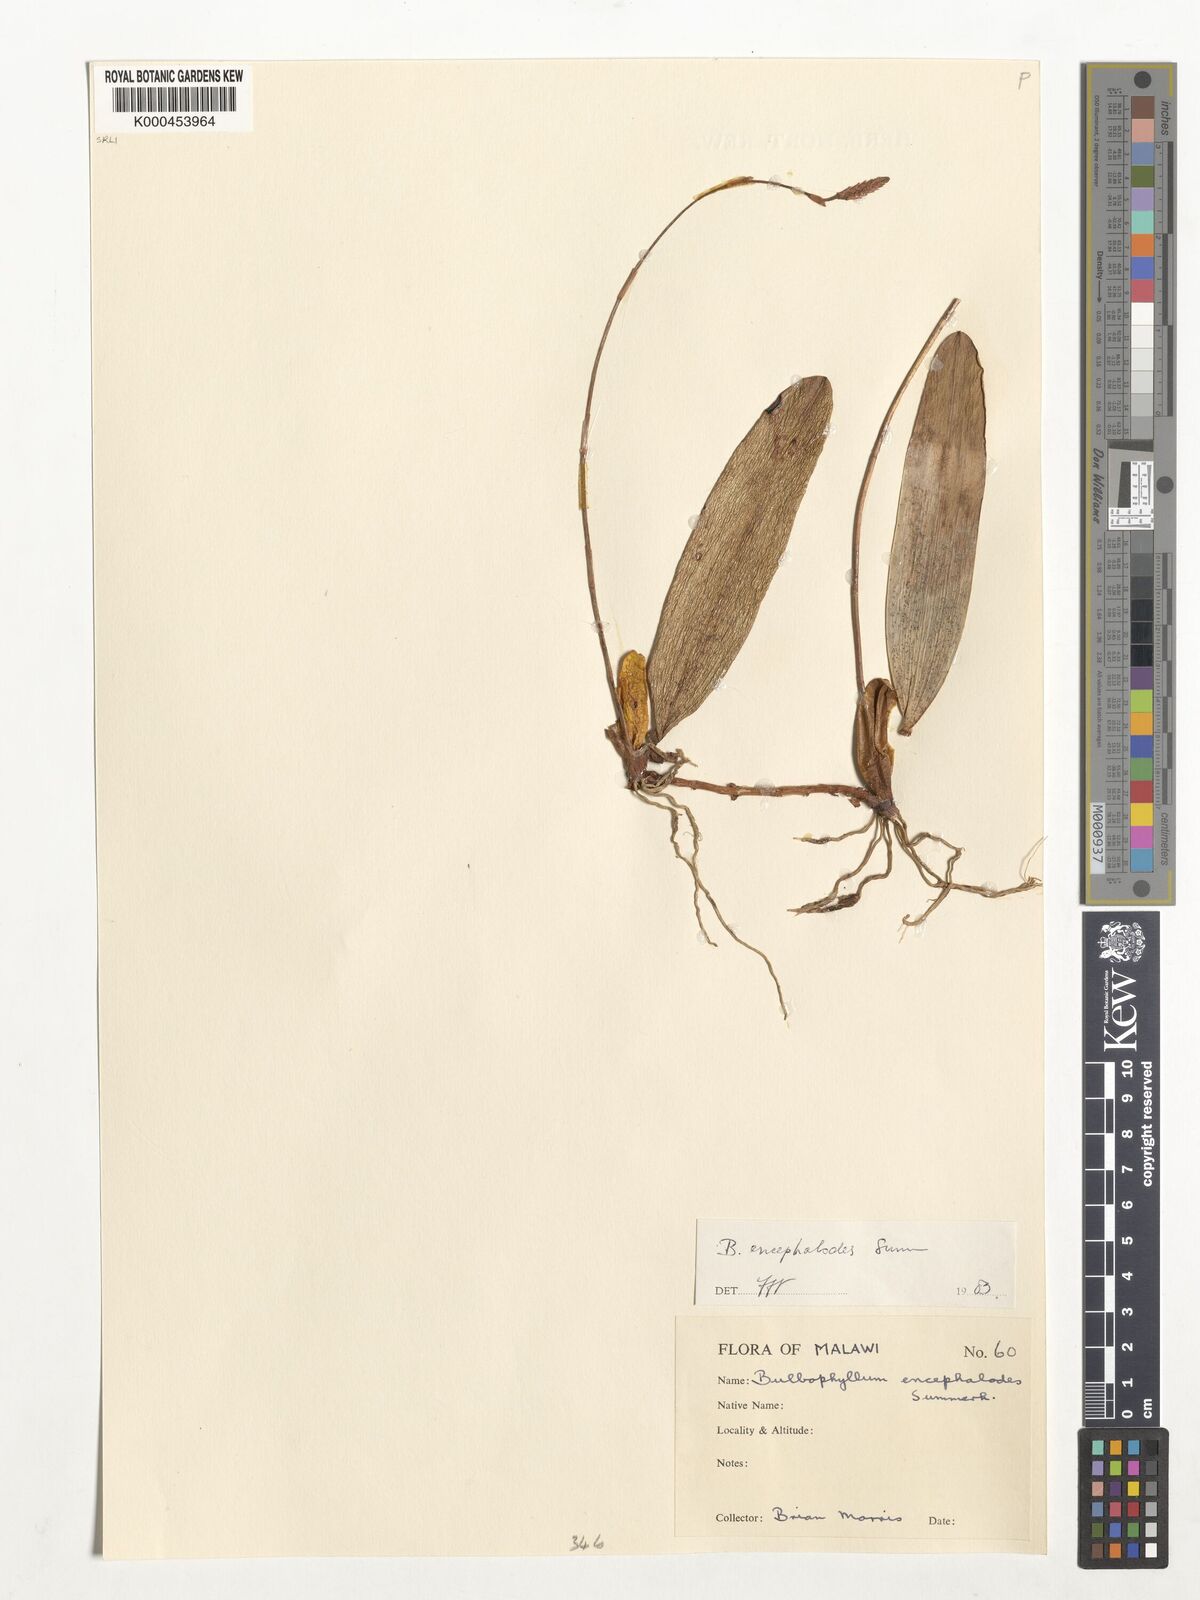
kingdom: Plantae
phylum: Tracheophyta
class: Liliopsida
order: Asparagales
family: Orchidaceae
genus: Bulbophyllum
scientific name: Bulbophyllum encephalodes
